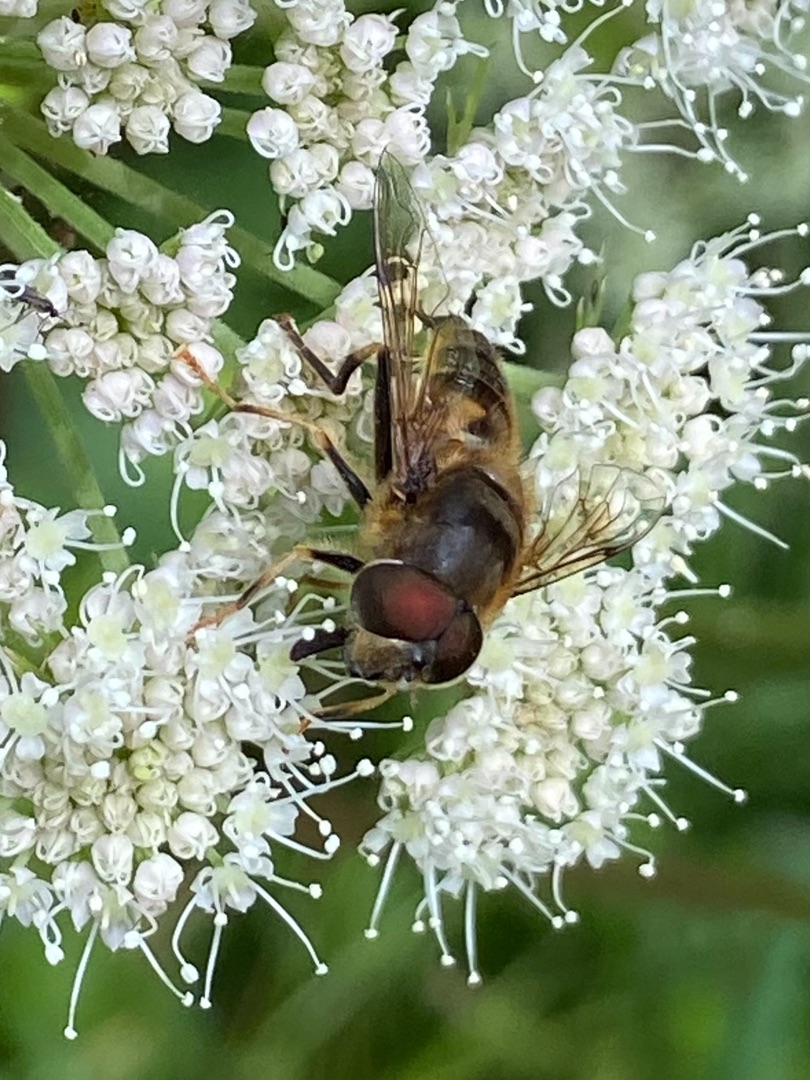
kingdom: Animalia
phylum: Arthropoda
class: Insecta
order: Diptera
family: Tachinidae
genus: Tachina
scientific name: Tachina fera
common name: Mellemfluen oskar
